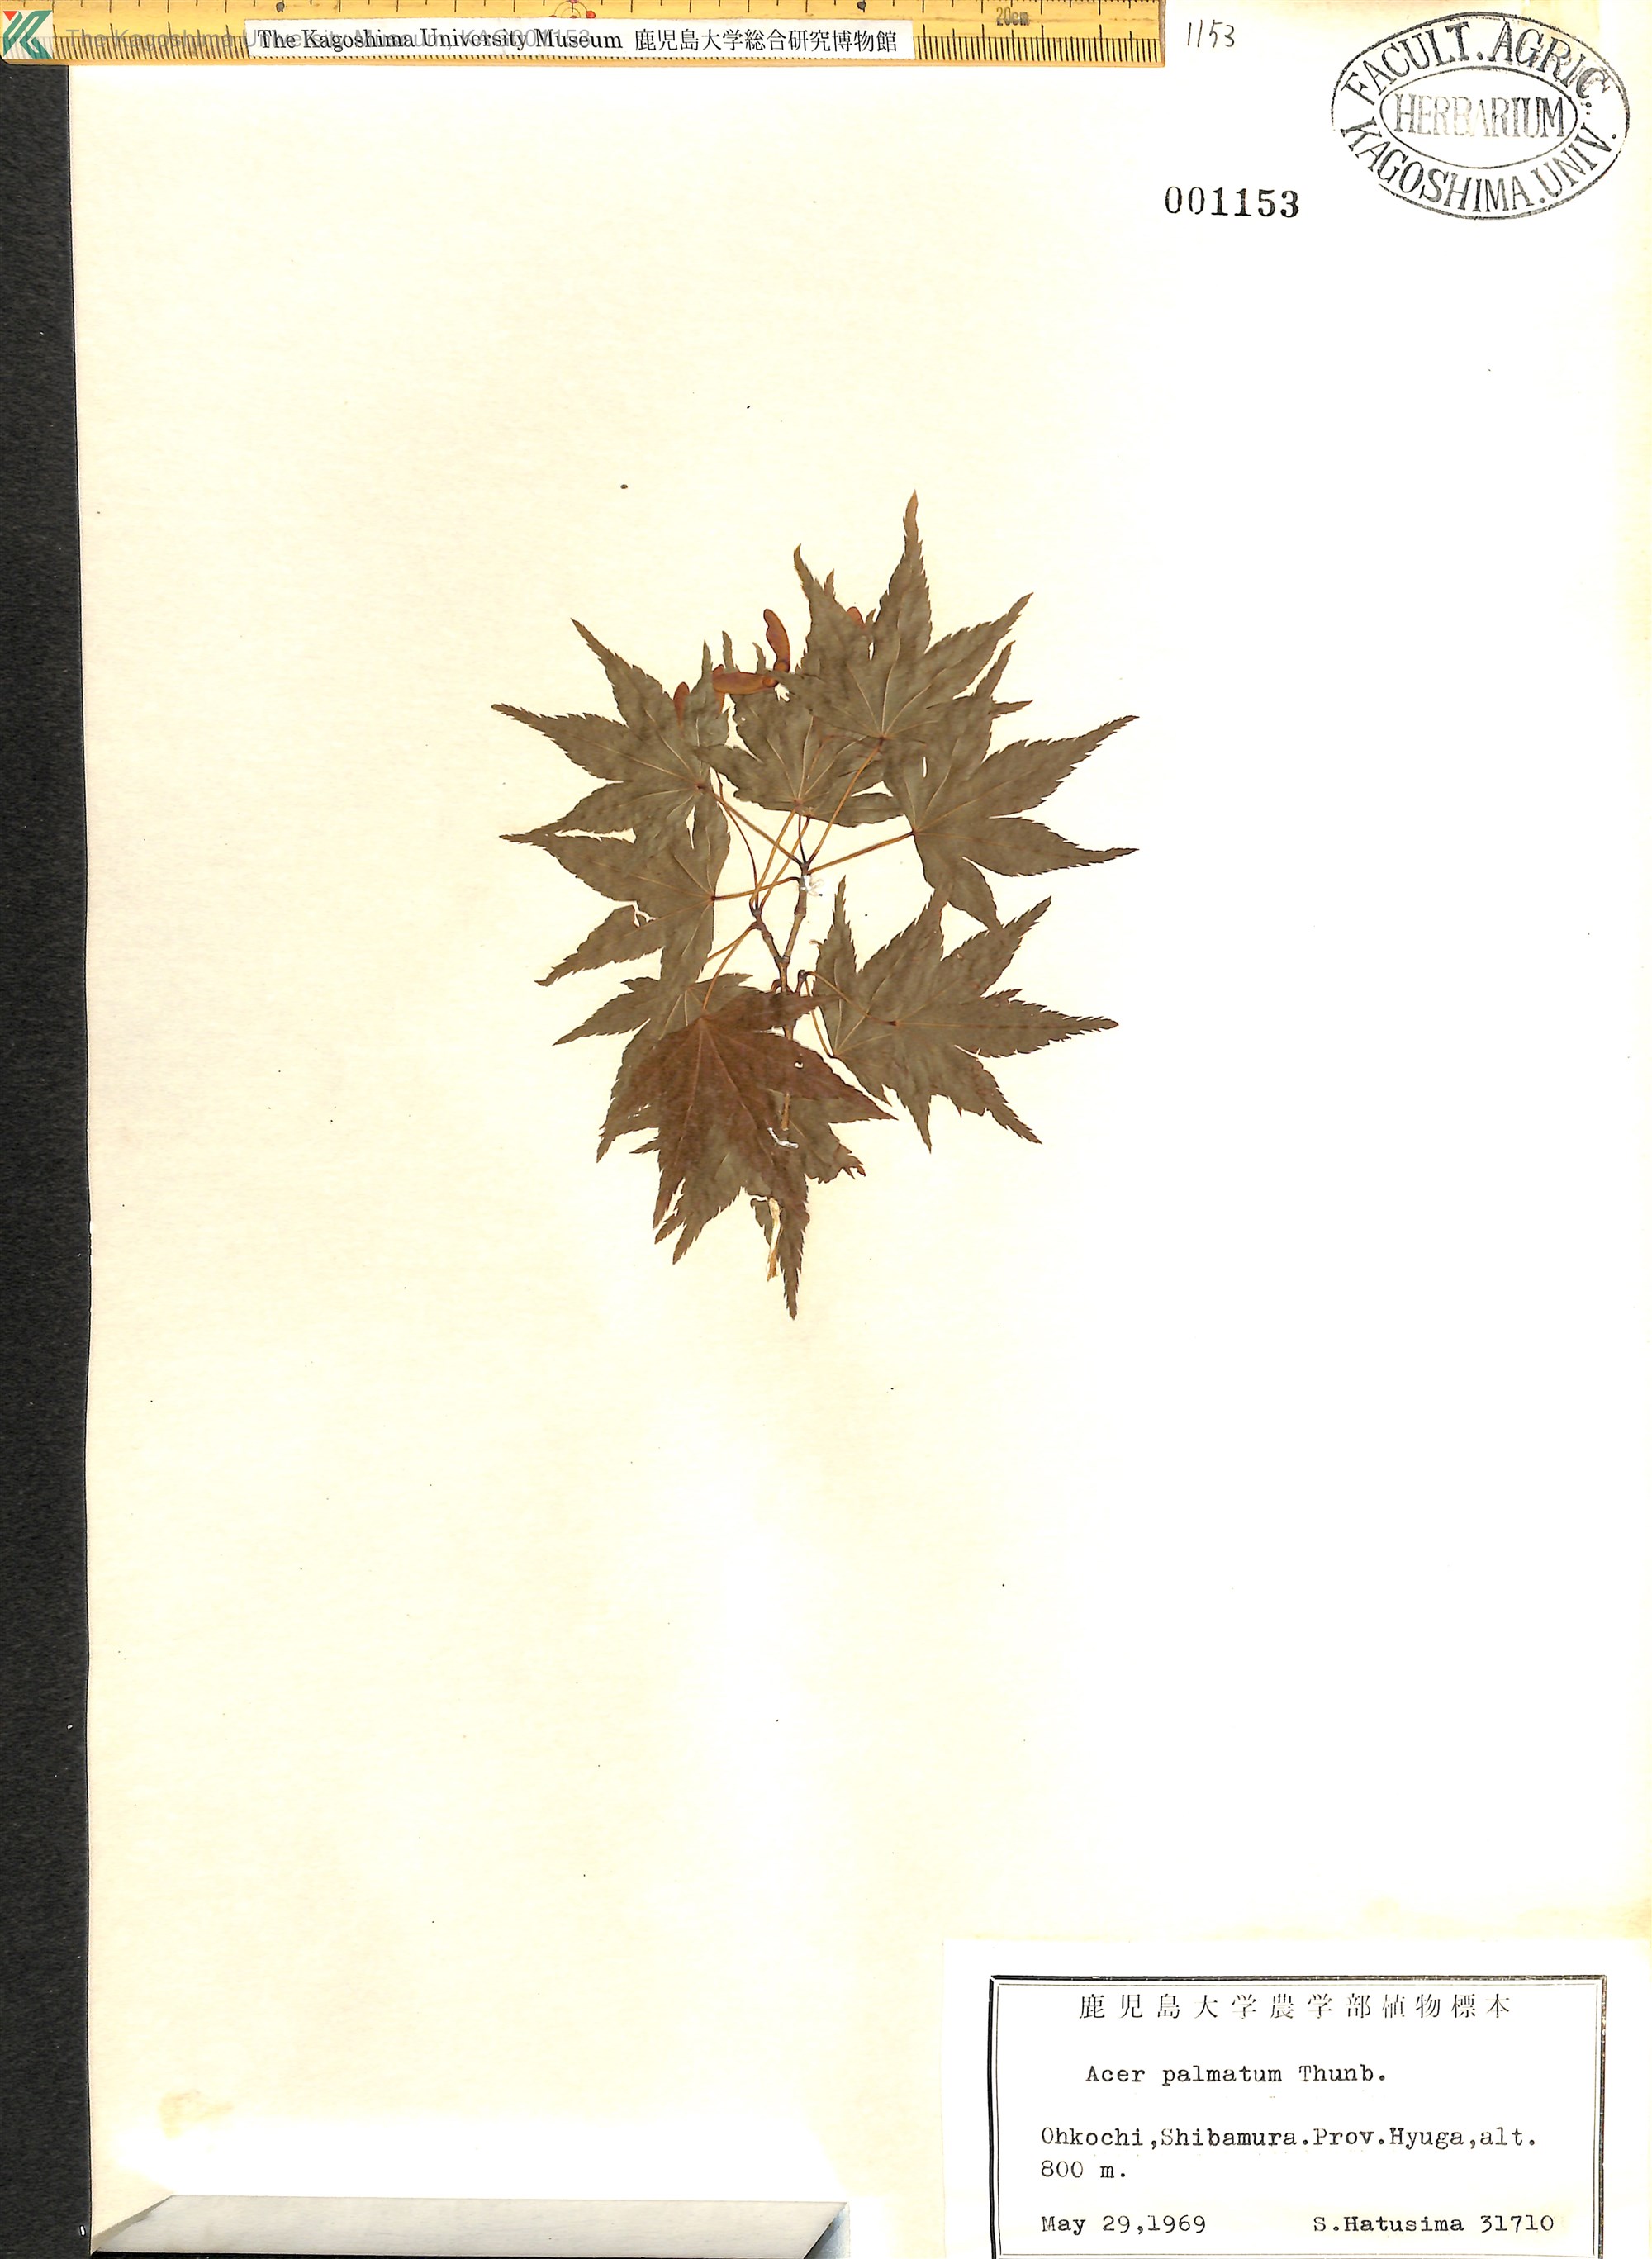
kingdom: Plantae
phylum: Tracheophyta
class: Magnoliopsida
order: Sapindales
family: Sapindaceae
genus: Acer
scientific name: Acer palmatum
